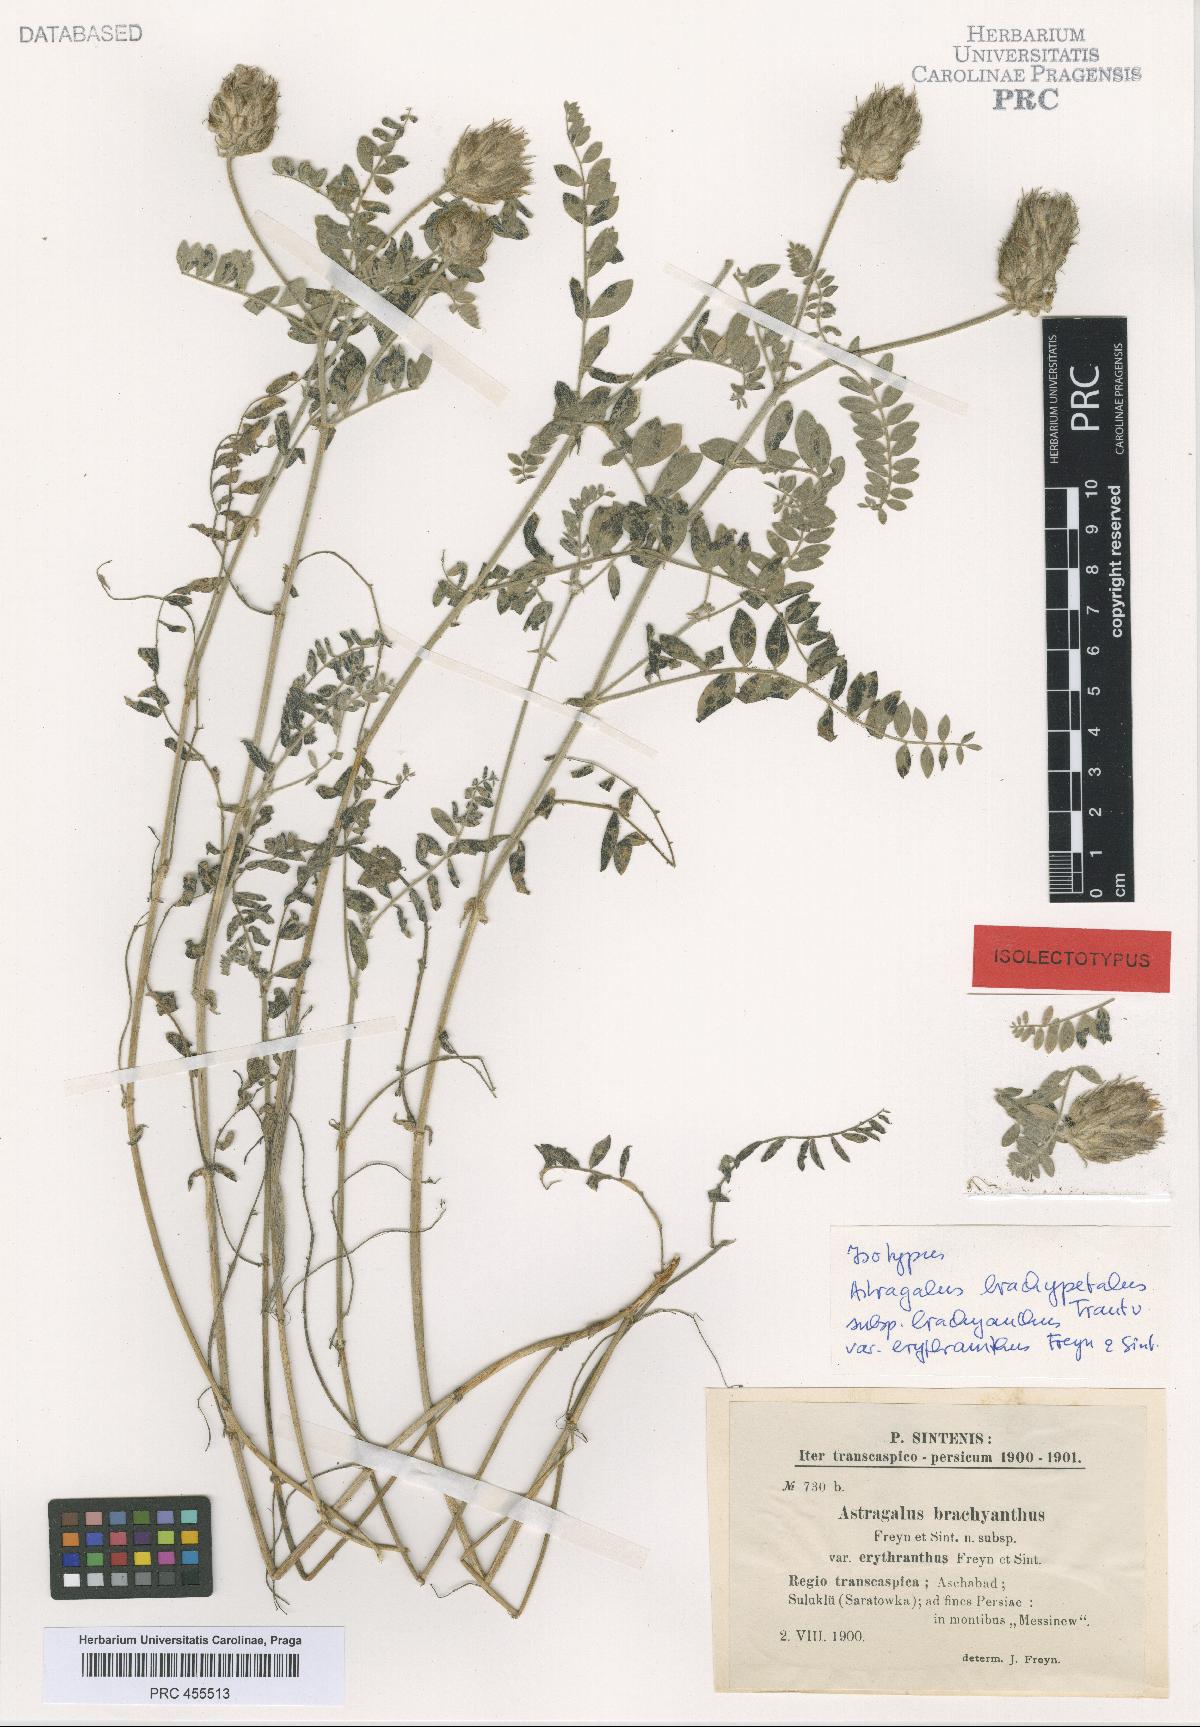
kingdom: Plantae
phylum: Tracheophyta
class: Magnoliopsida
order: Fabales
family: Fabaceae
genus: Astragalus
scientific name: Astragalus brachypetalus
